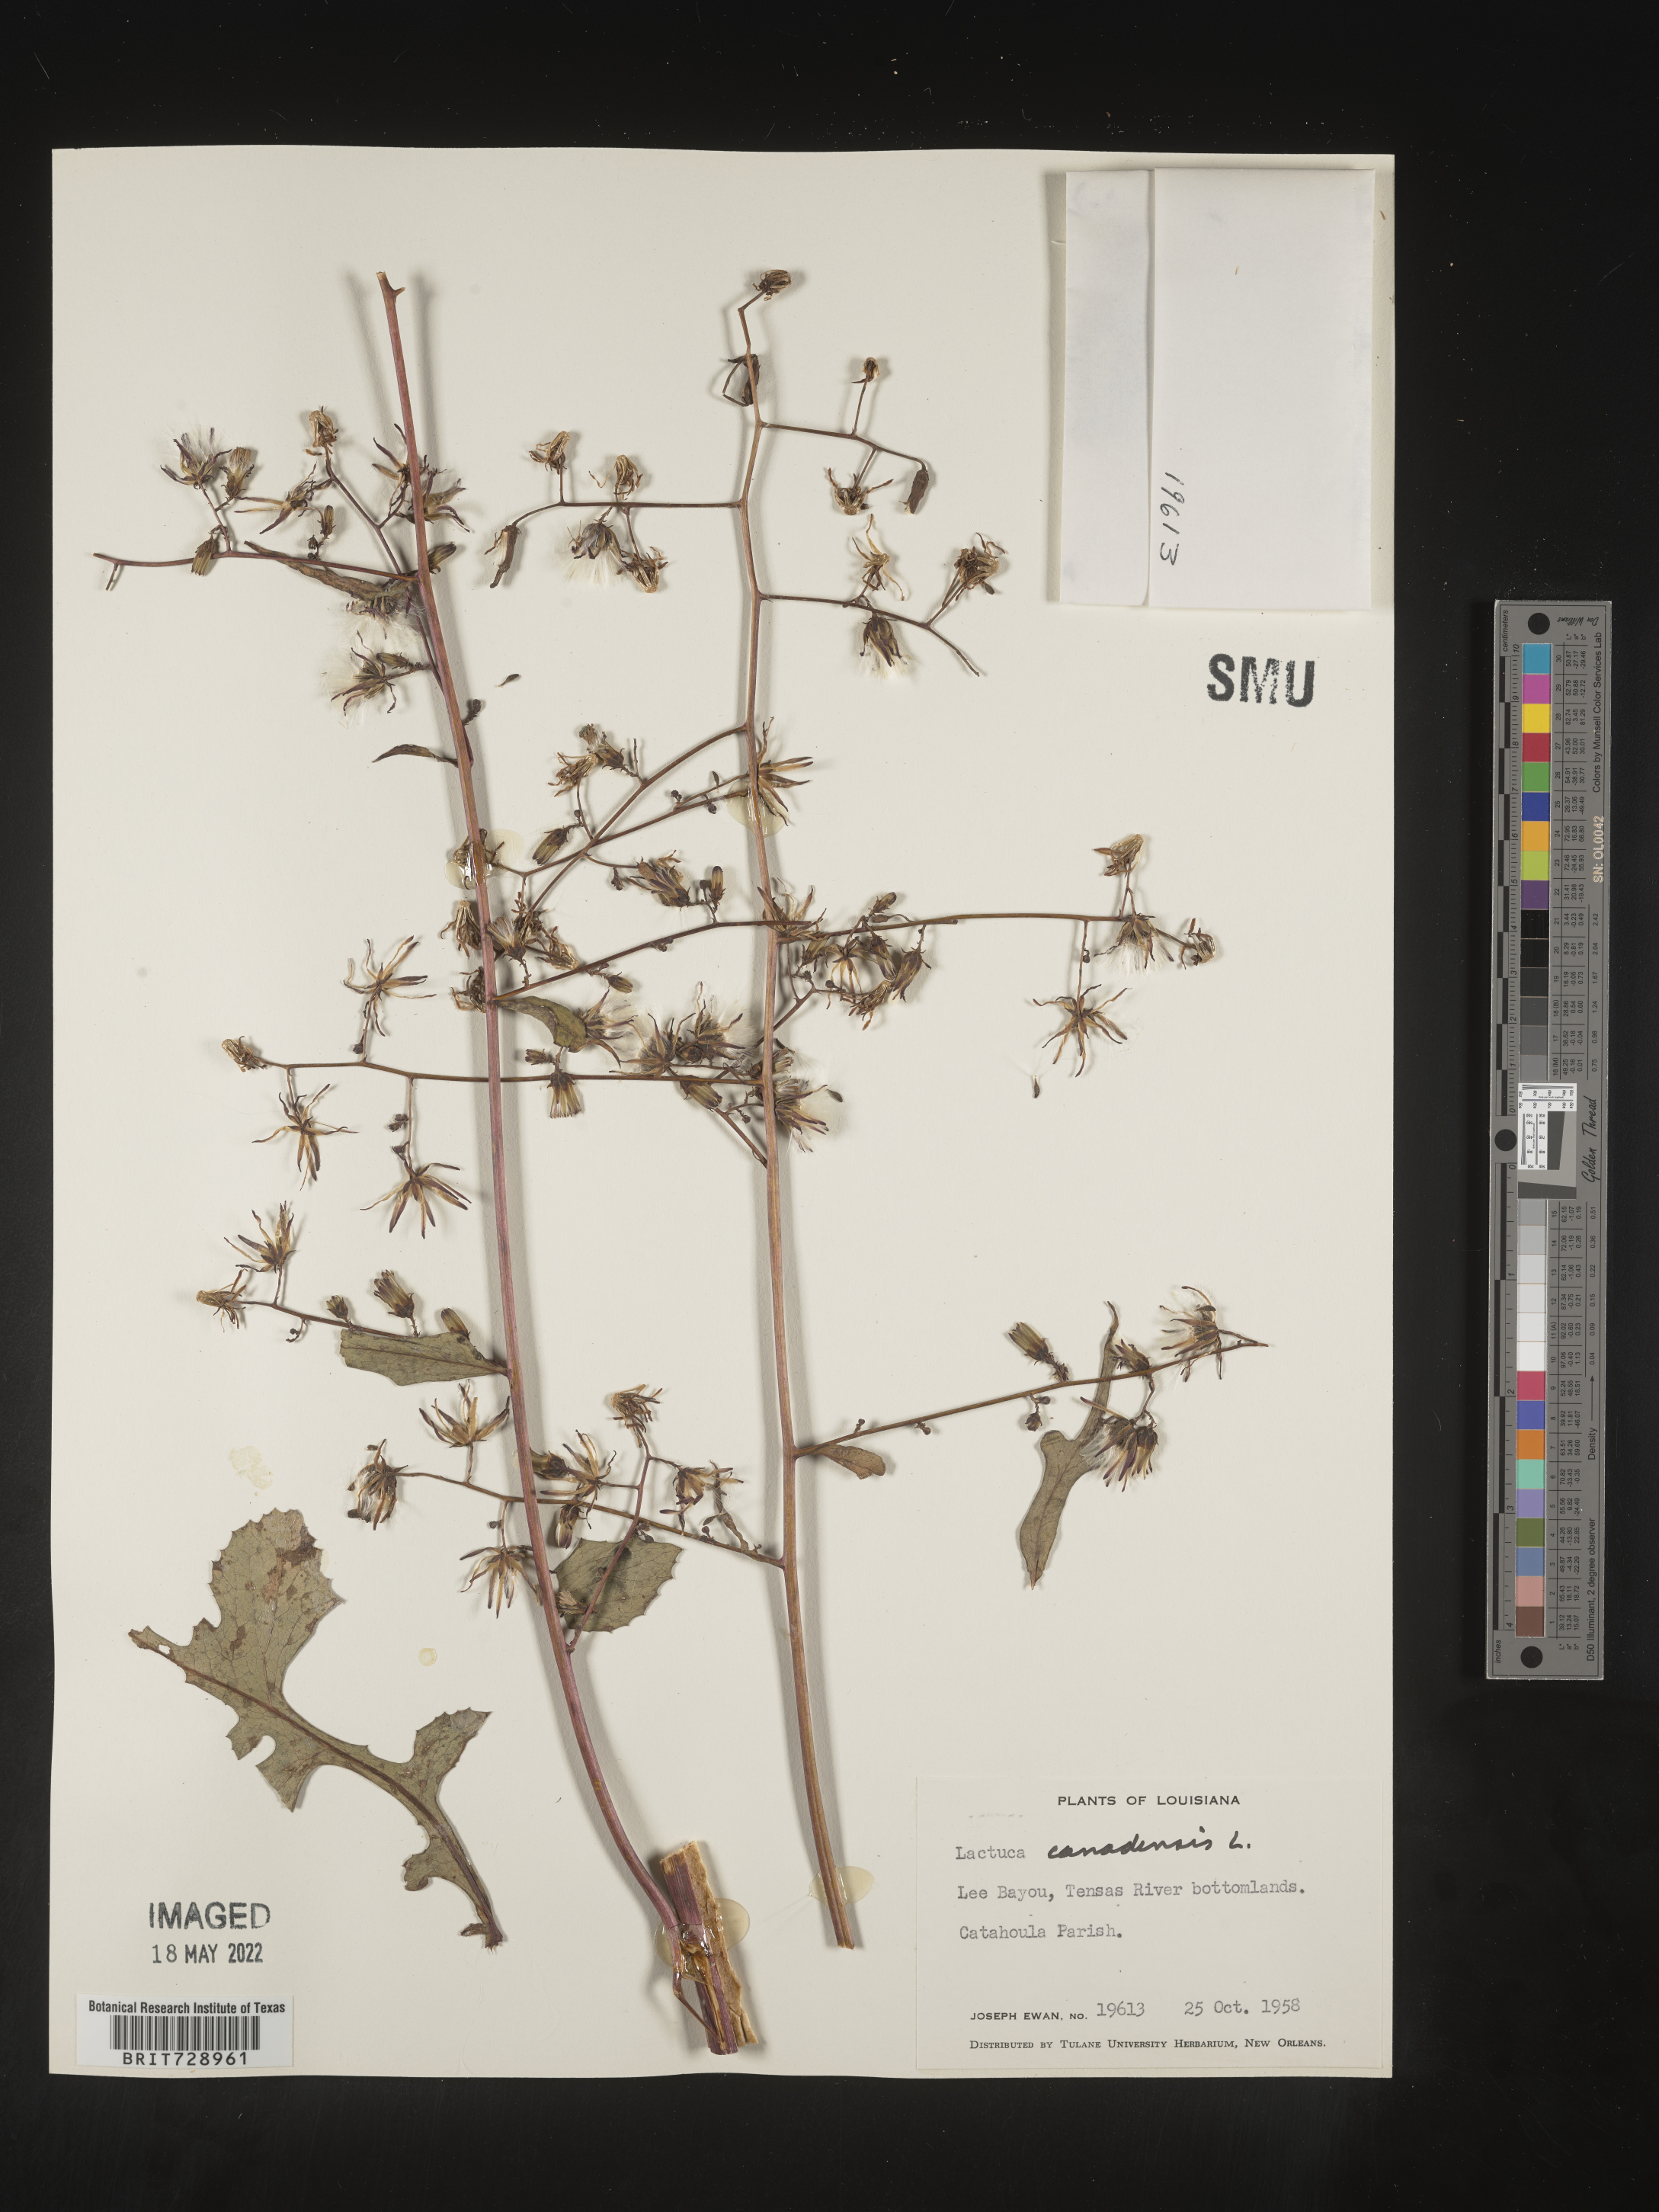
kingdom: Plantae
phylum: Tracheophyta
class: Magnoliopsida
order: Asterales
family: Asteraceae
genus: Lactuca
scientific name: Lactuca canadensis
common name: Canada lettuce
